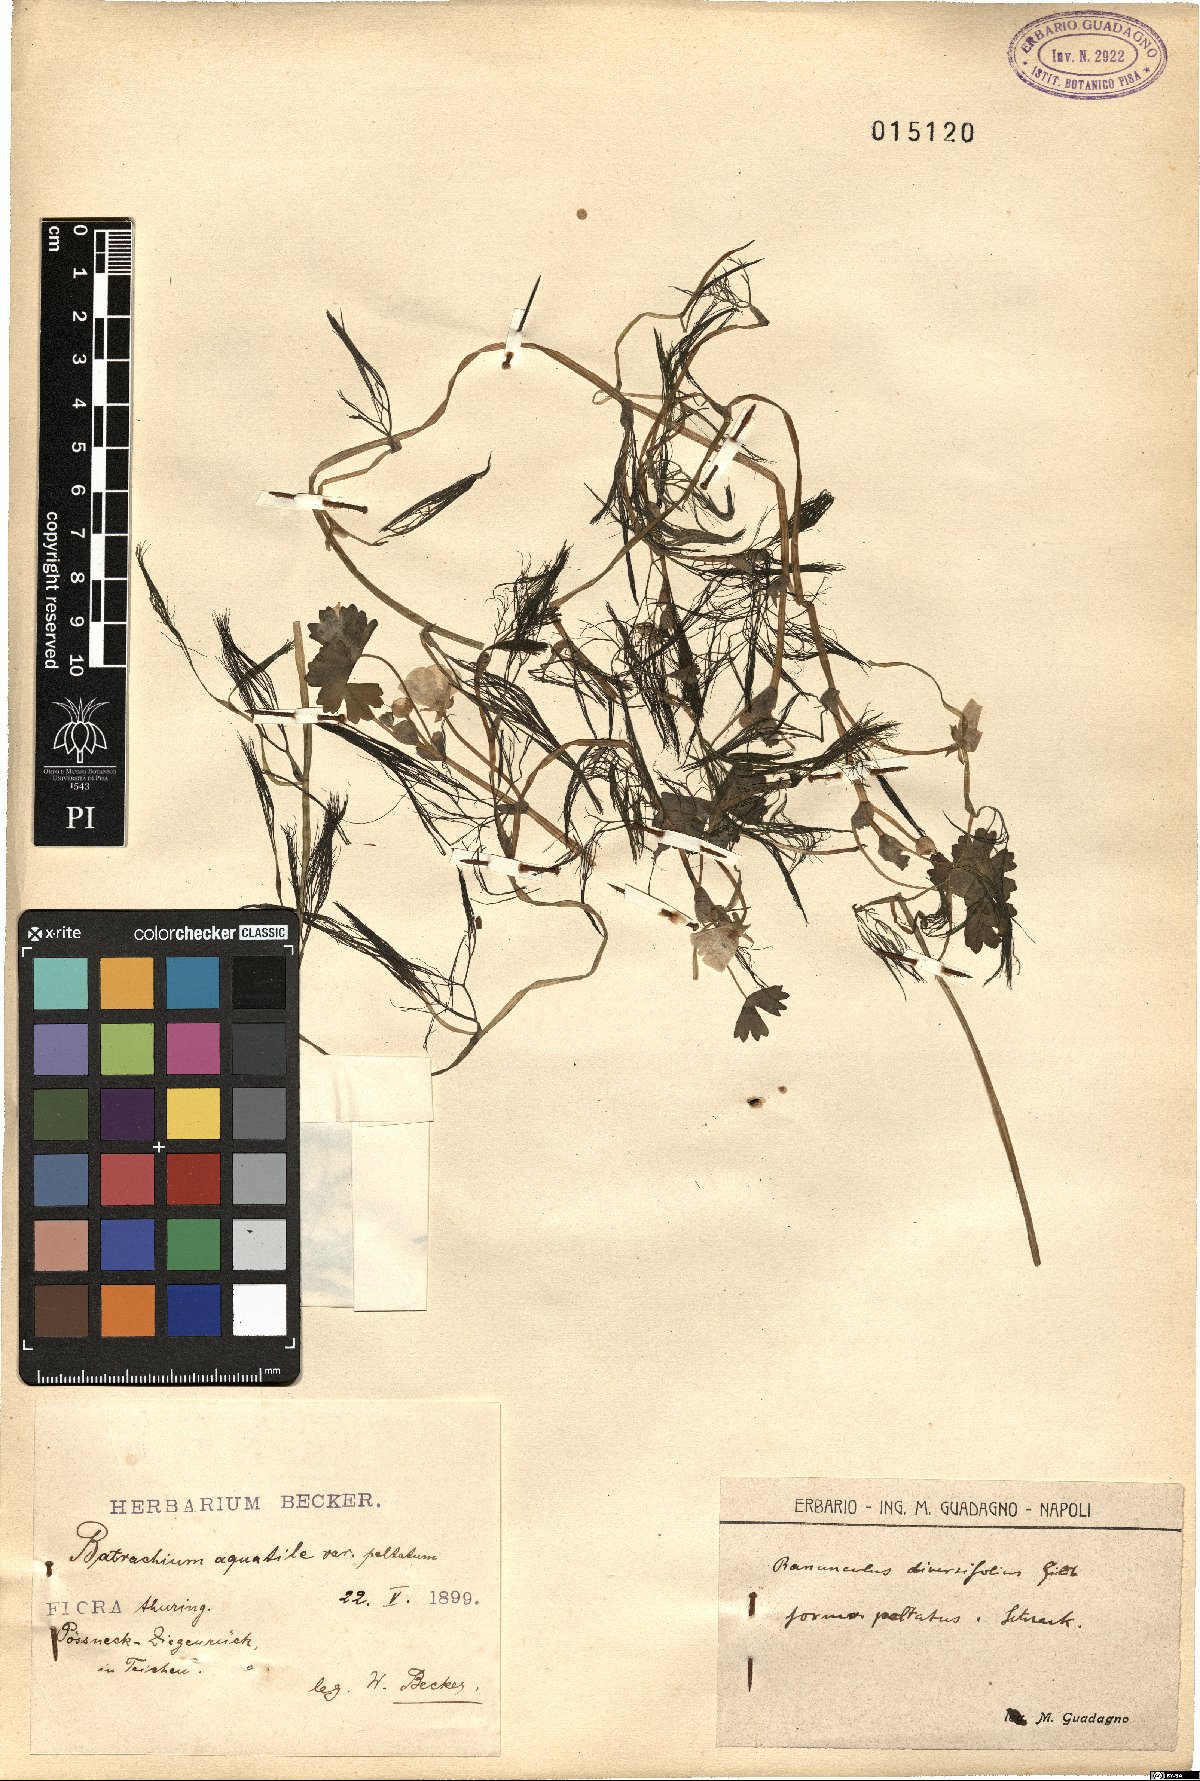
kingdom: Plantae
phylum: Tracheophyta
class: Magnoliopsida
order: Ranunculales
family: Ranunculaceae
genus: Ranunculus
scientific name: Ranunculus kurdicus
